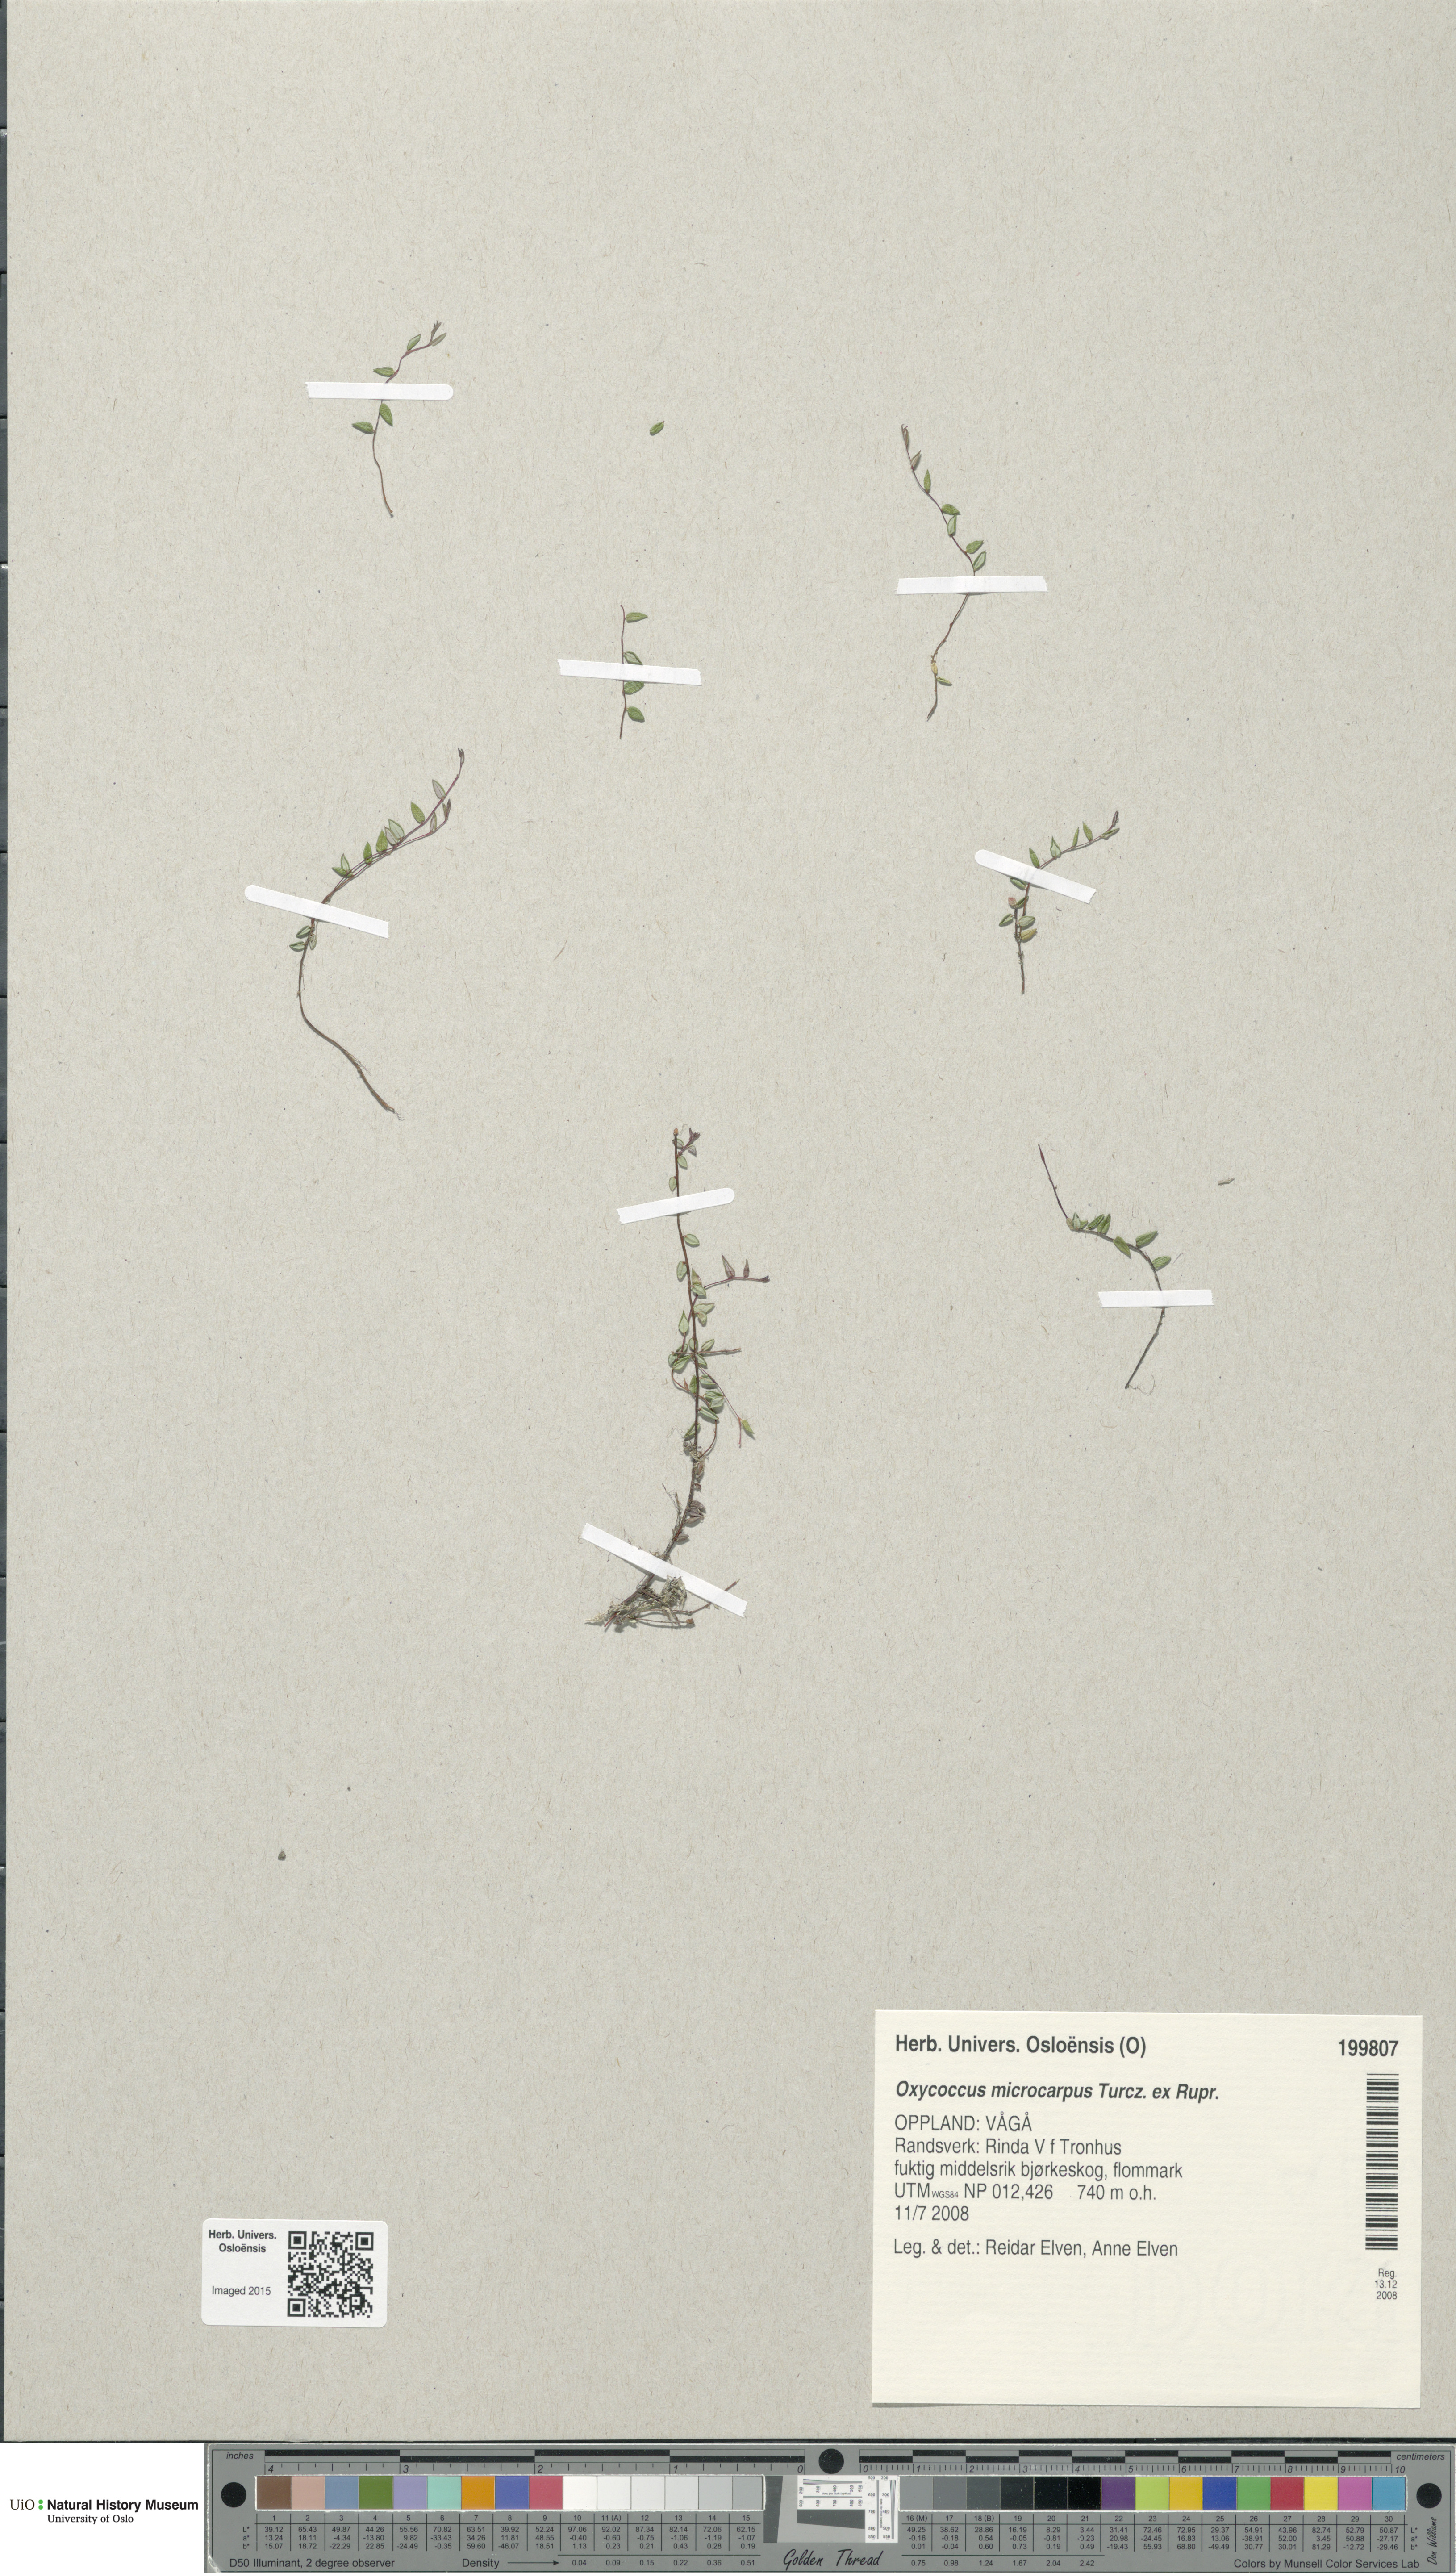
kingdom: Plantae
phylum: Tracheophyta
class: Magnoliopsida
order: Ericales
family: Ericaceae
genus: Vaccinium
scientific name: Vaccinium microcarpum
